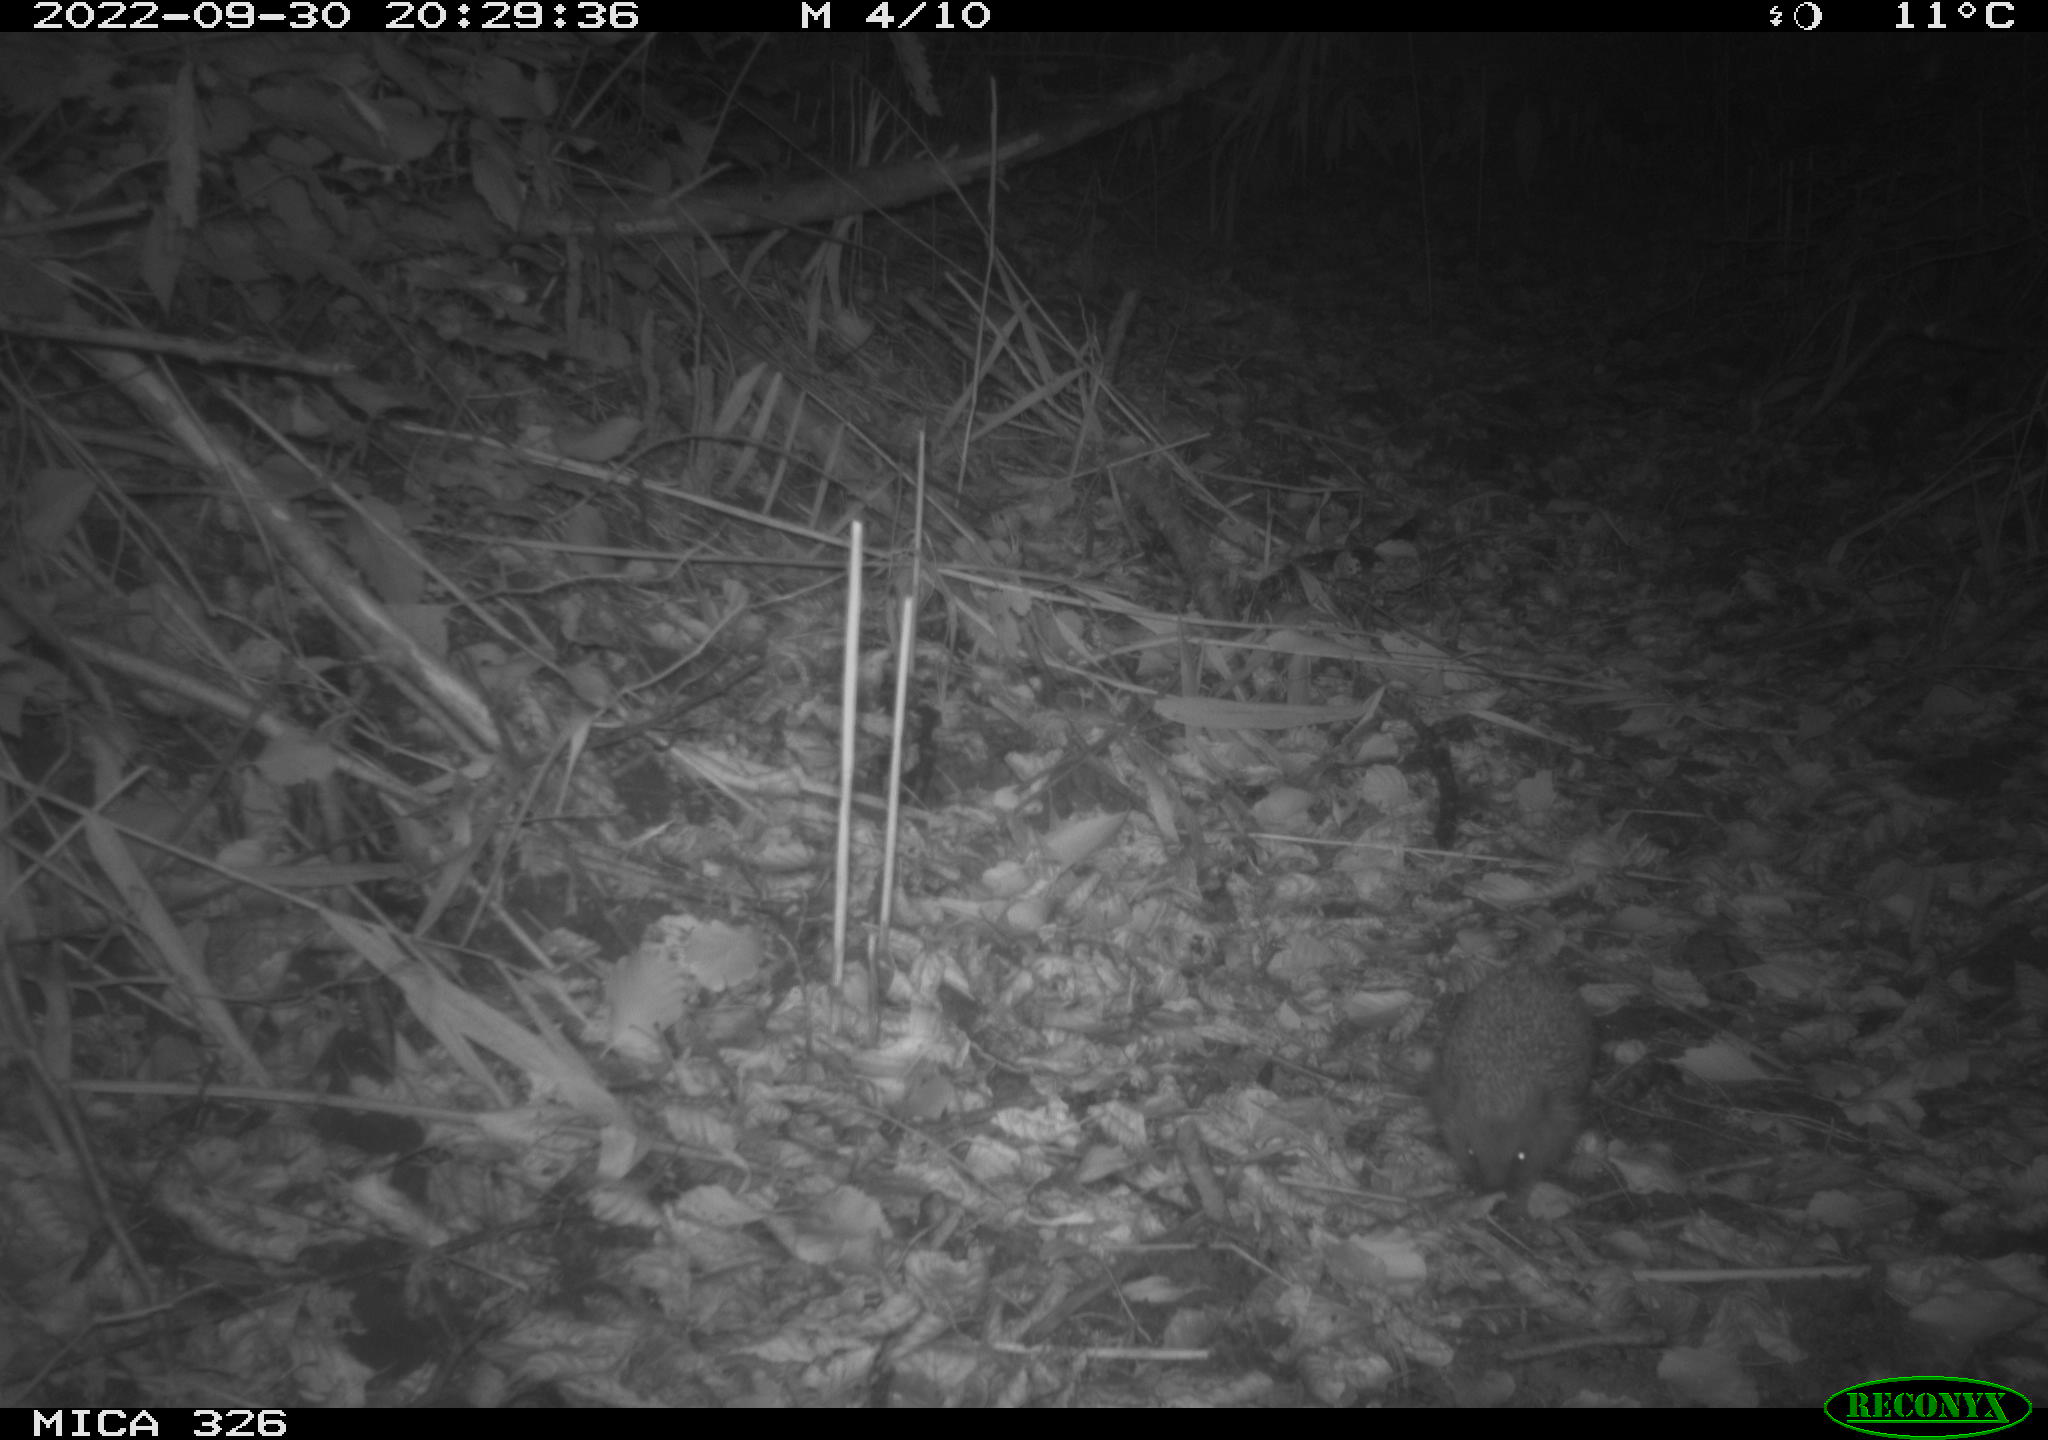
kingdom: Animalia
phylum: Chordata
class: Mammalia
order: Erinaceomorpha
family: Erinaceidae
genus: Erinaceus
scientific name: Erinaceus europaeus
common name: West european hedgehog
